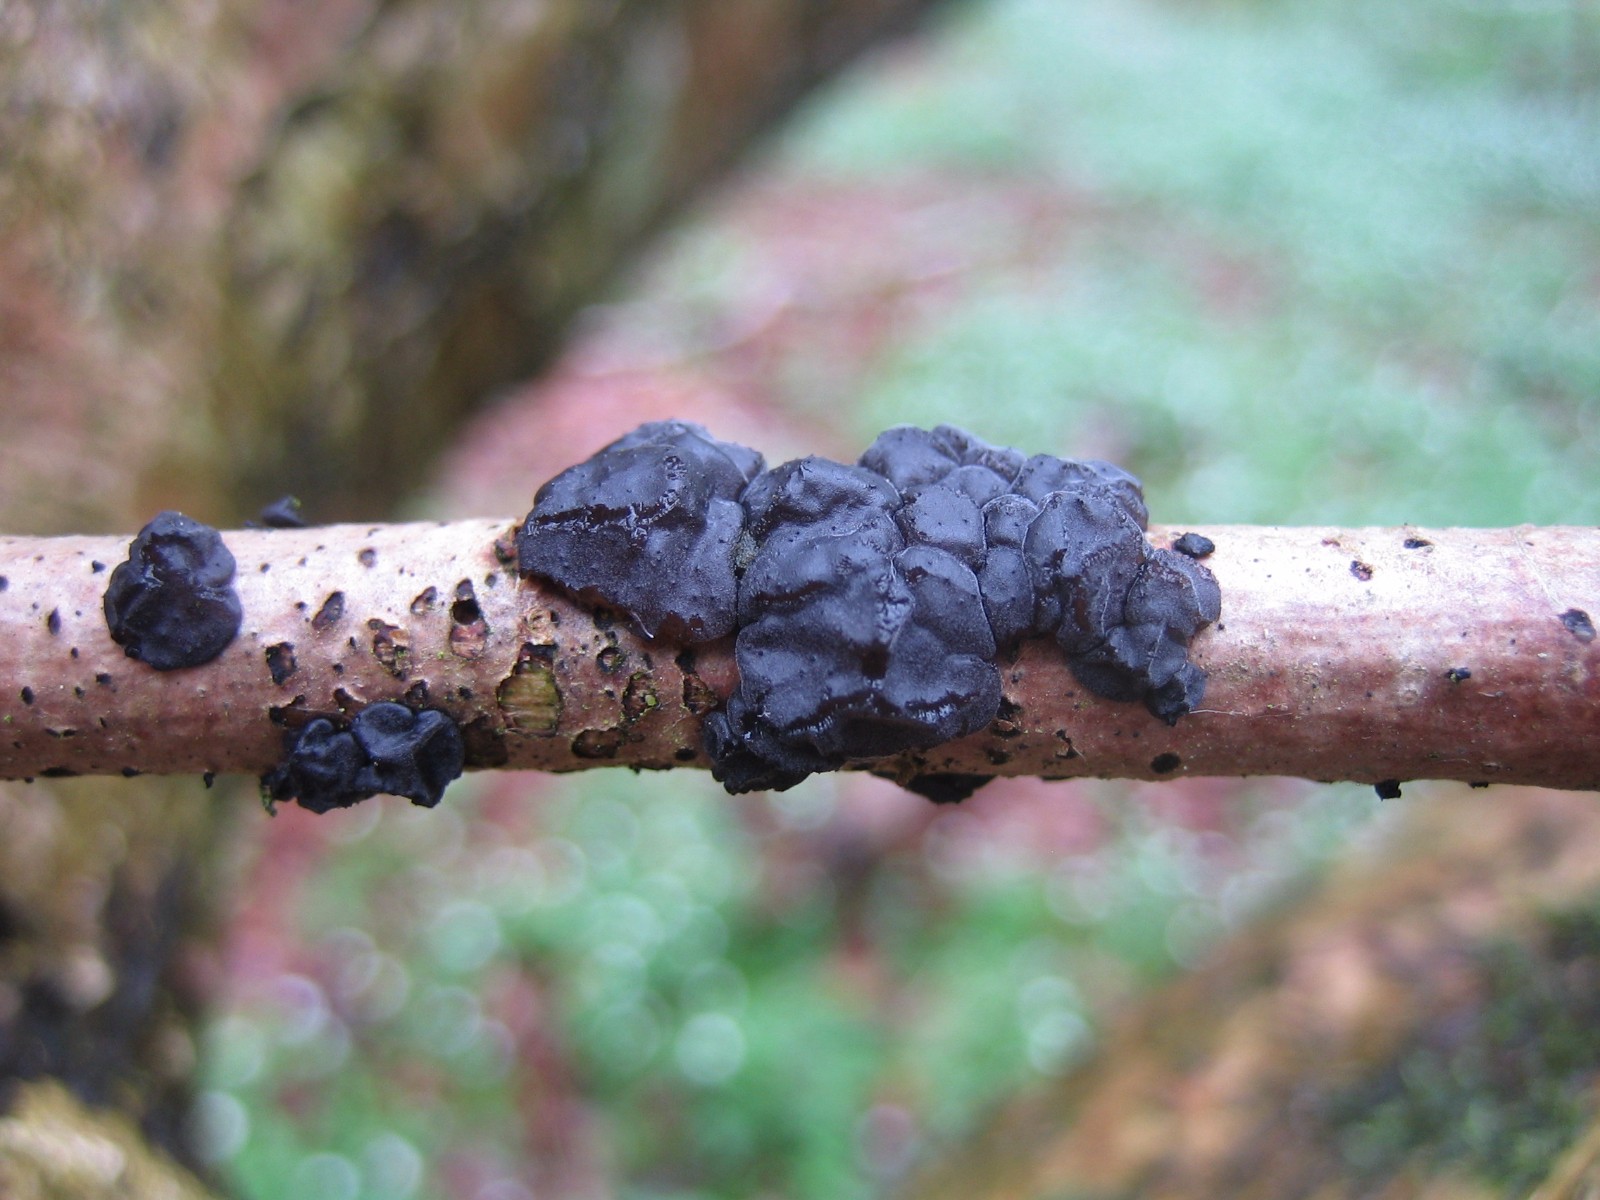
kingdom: Fungi
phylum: Basidiomycota
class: Agaricomycetes
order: Auriculariales
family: Auriculariaceae
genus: Exidia
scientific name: Exidia nigricans
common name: almindelig bævretop
